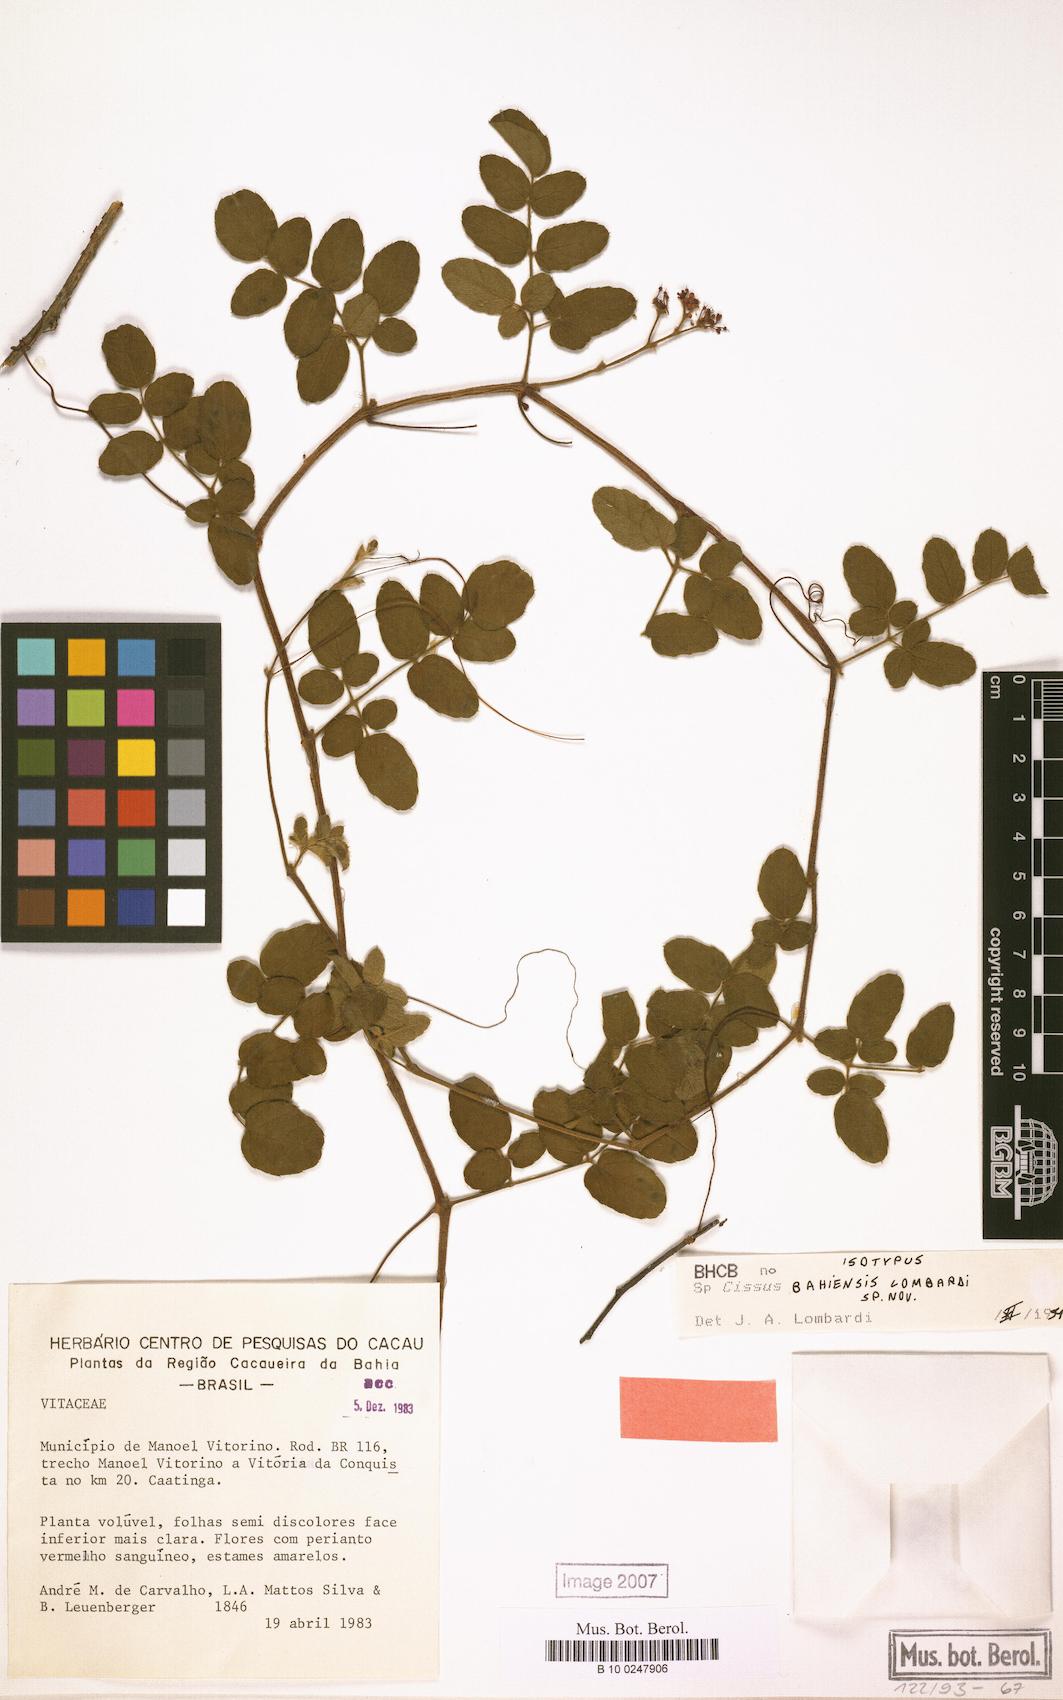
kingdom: Plantae
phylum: Tracheophyta
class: Magnoliopsida
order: Vitales
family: Vitaceae
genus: Cissus
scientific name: Cissus bahiensis
